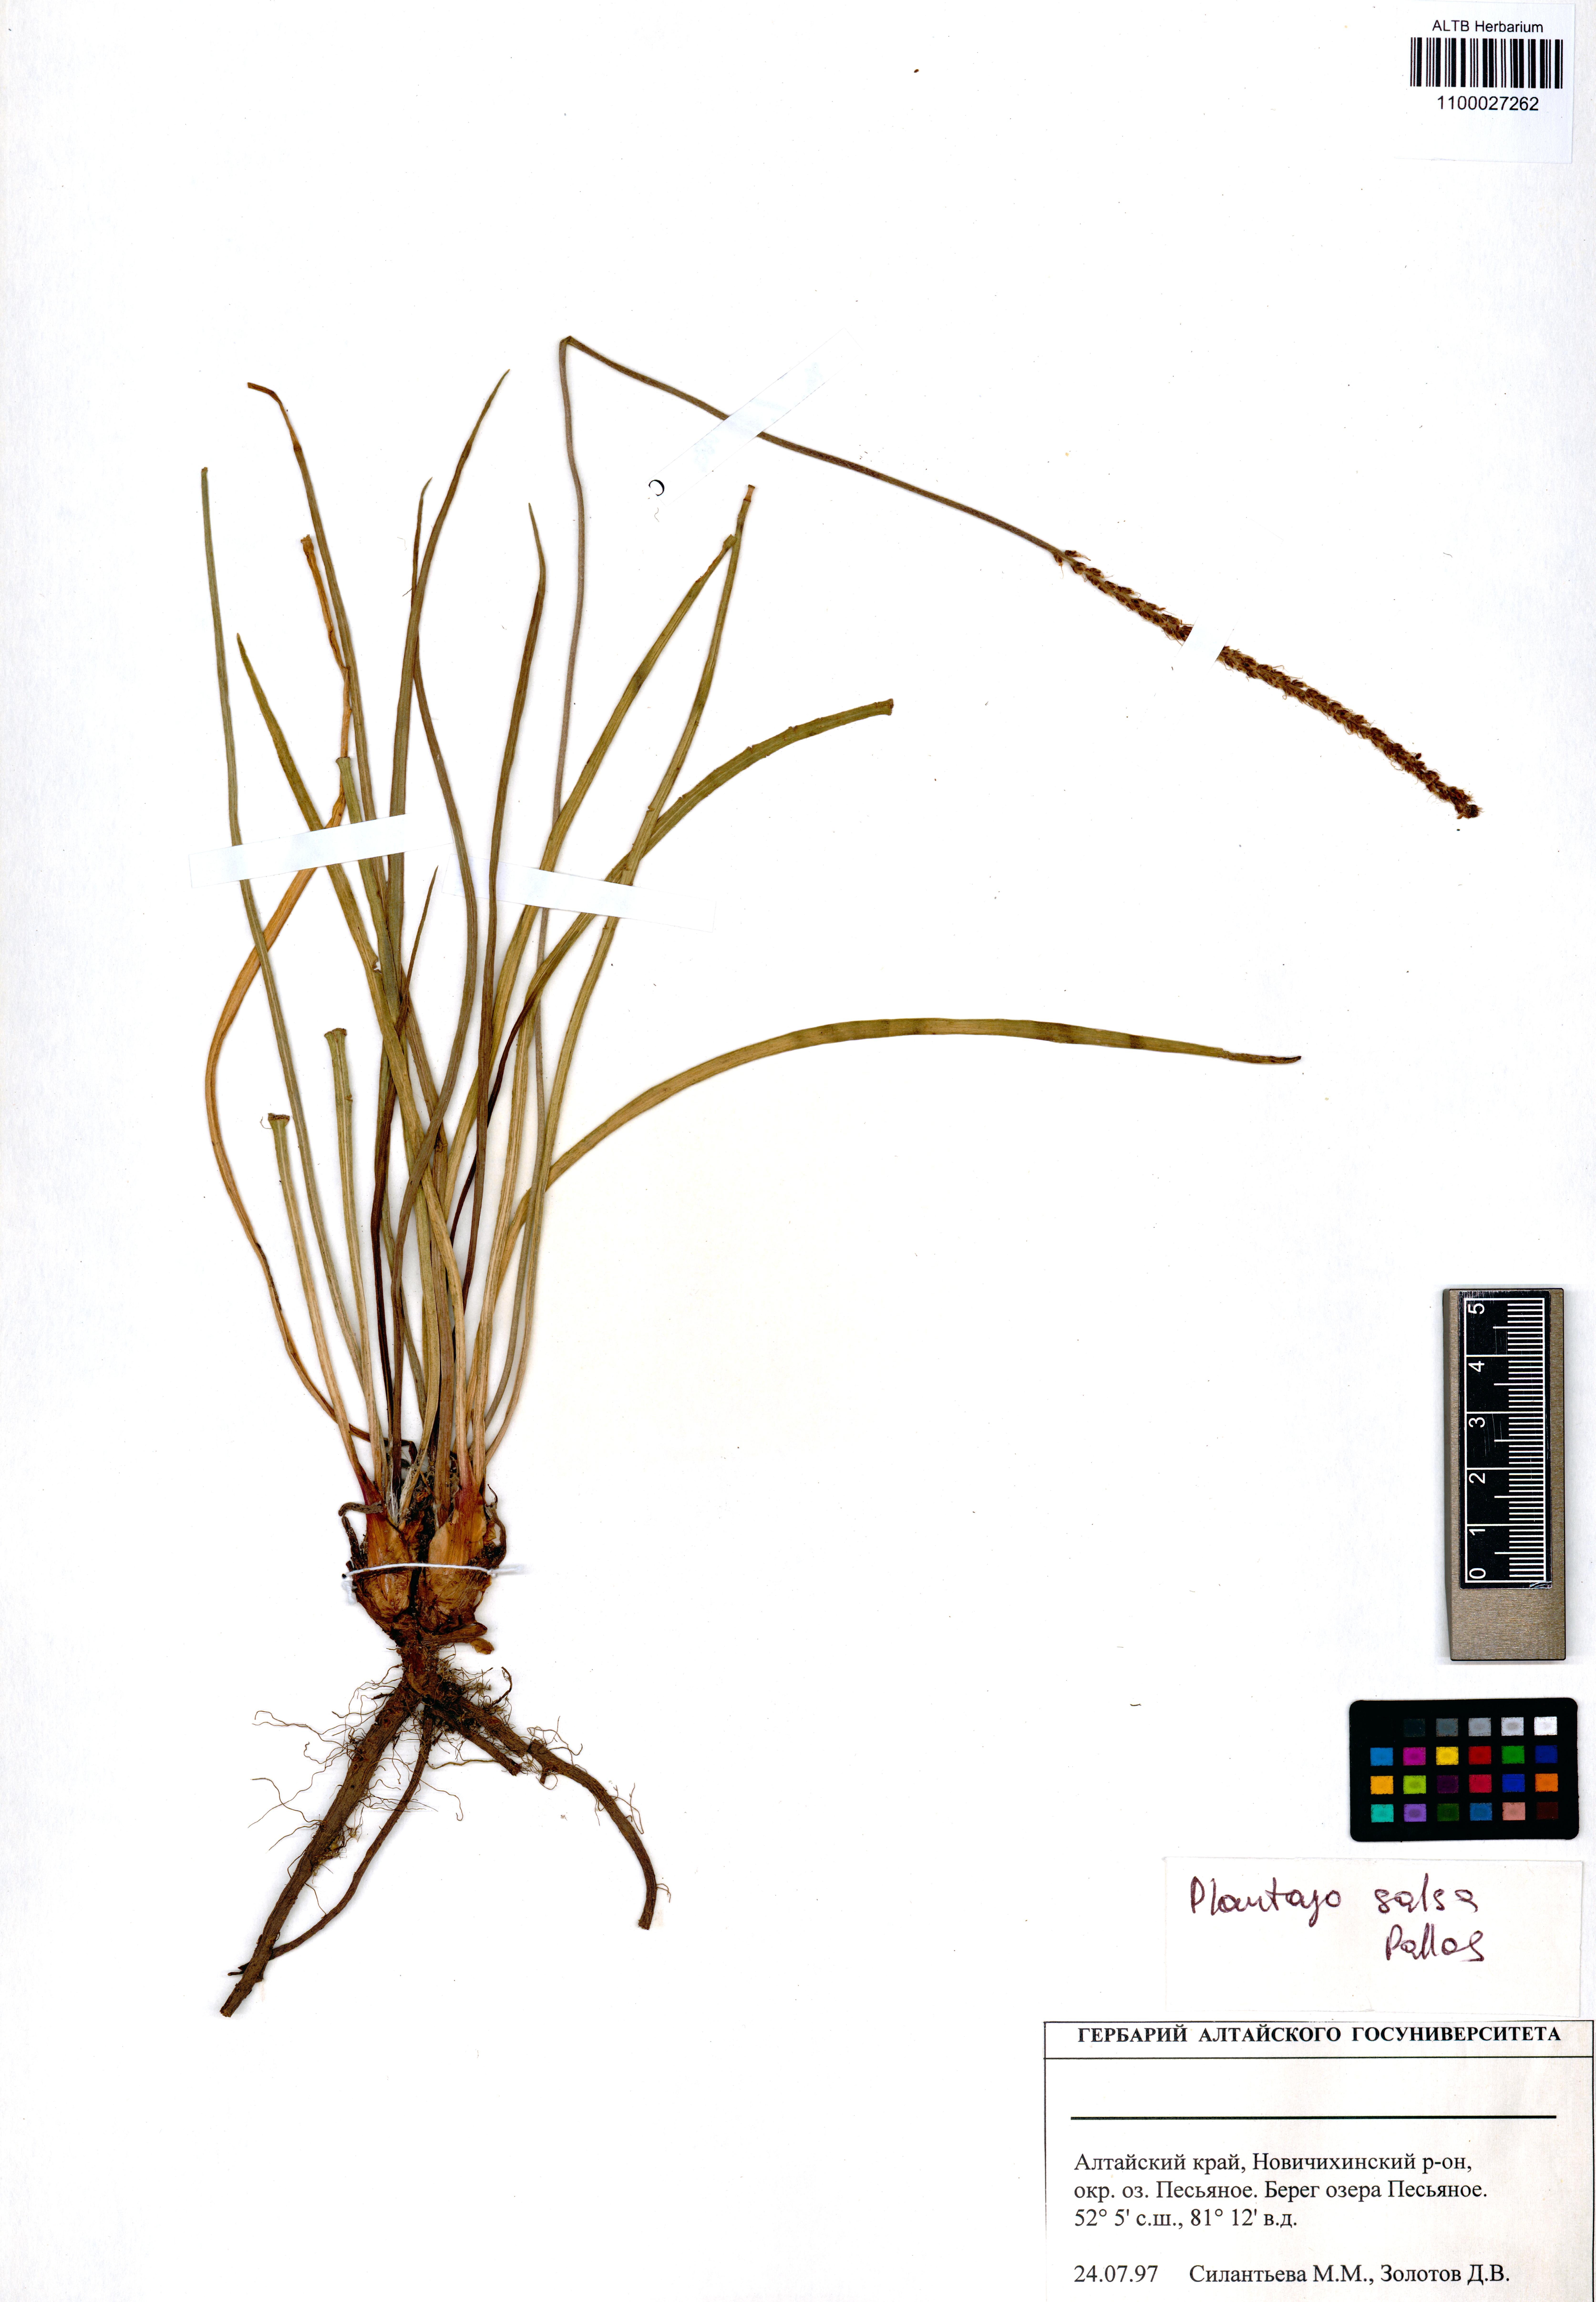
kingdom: Plantae
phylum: Tracheophyta
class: Magnoliopsida
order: Lamiales
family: Plantaginaceae
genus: Plantago
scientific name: Plantago salsa
